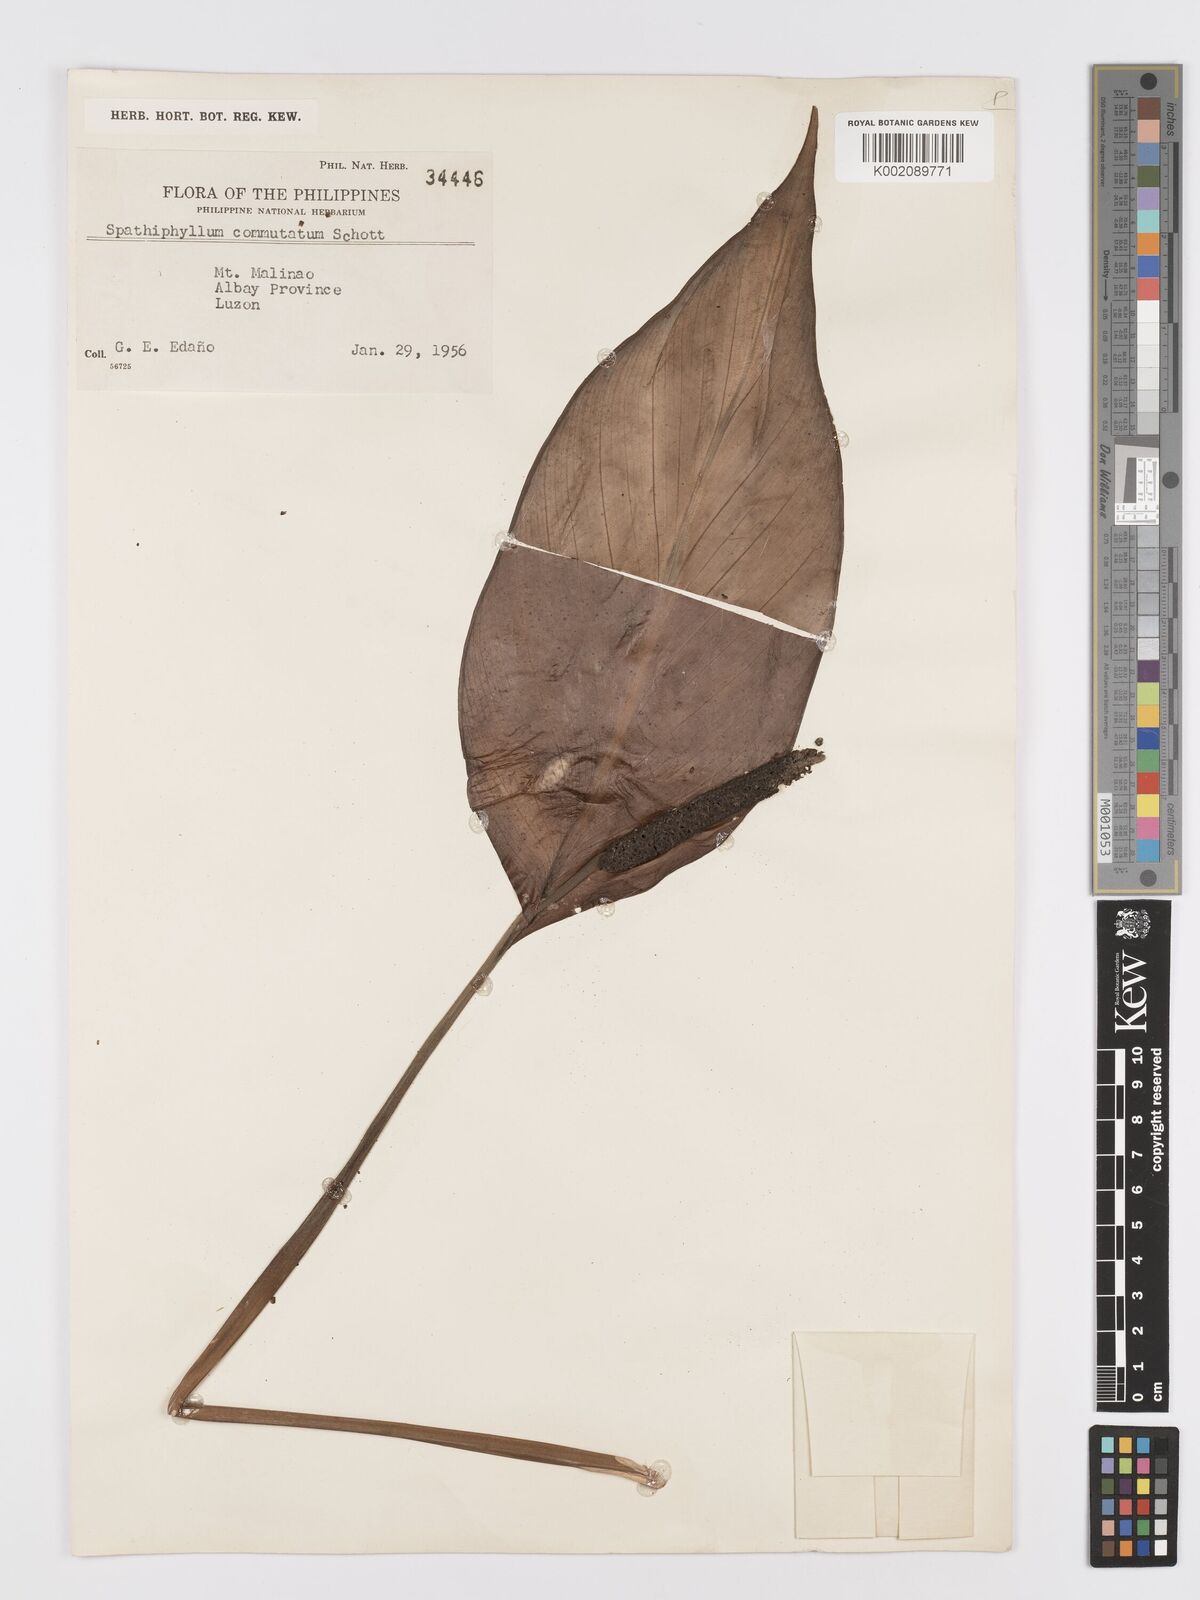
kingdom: Plantae
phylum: Tracheophyta
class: Liliopsida
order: Alismatales
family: Araceae
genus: Spathiphyllum
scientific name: Spathiphyllum commutatum
